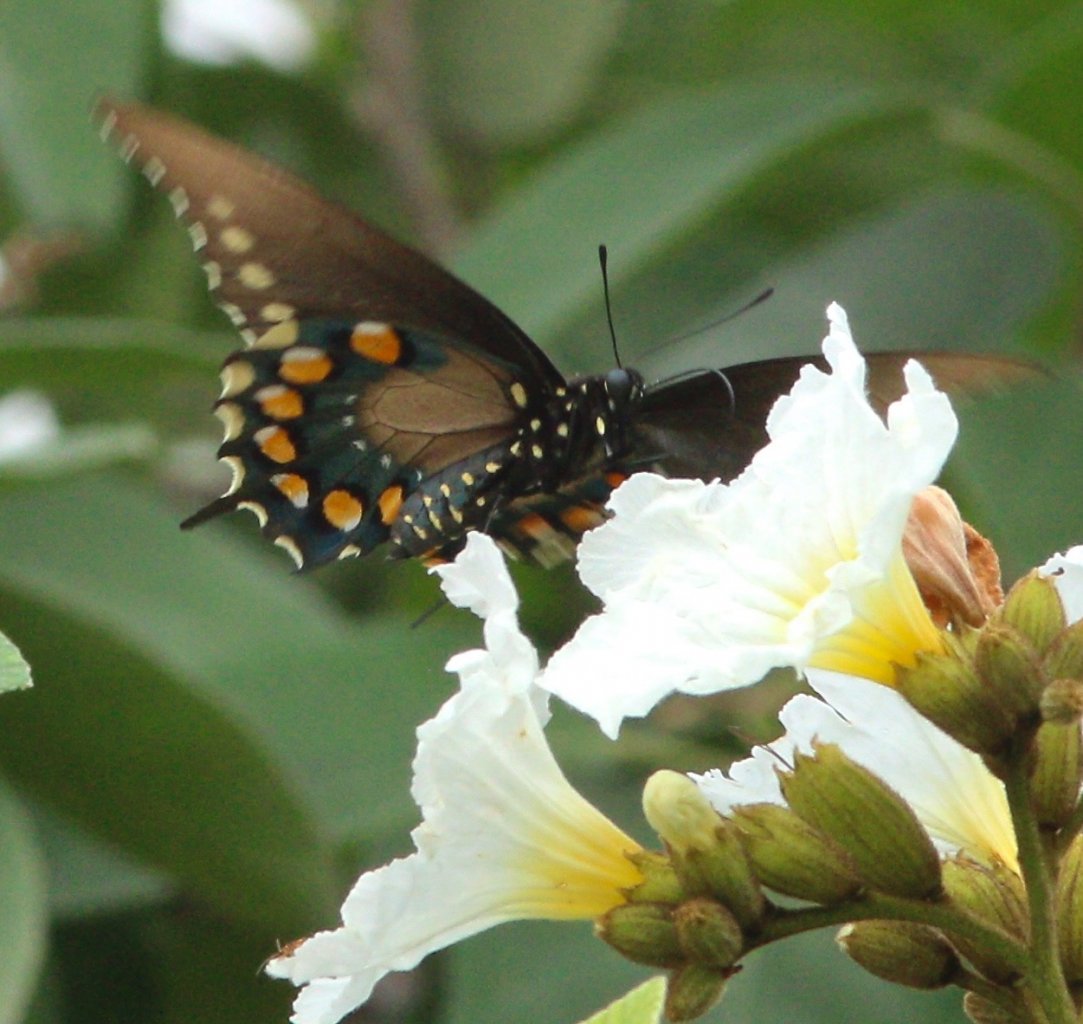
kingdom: Animalia
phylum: Arthropoda
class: Insecta
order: Lepidoptera
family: Papilionidae
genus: Battus
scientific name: Battus philenor
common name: Pipevine Swallowtail
